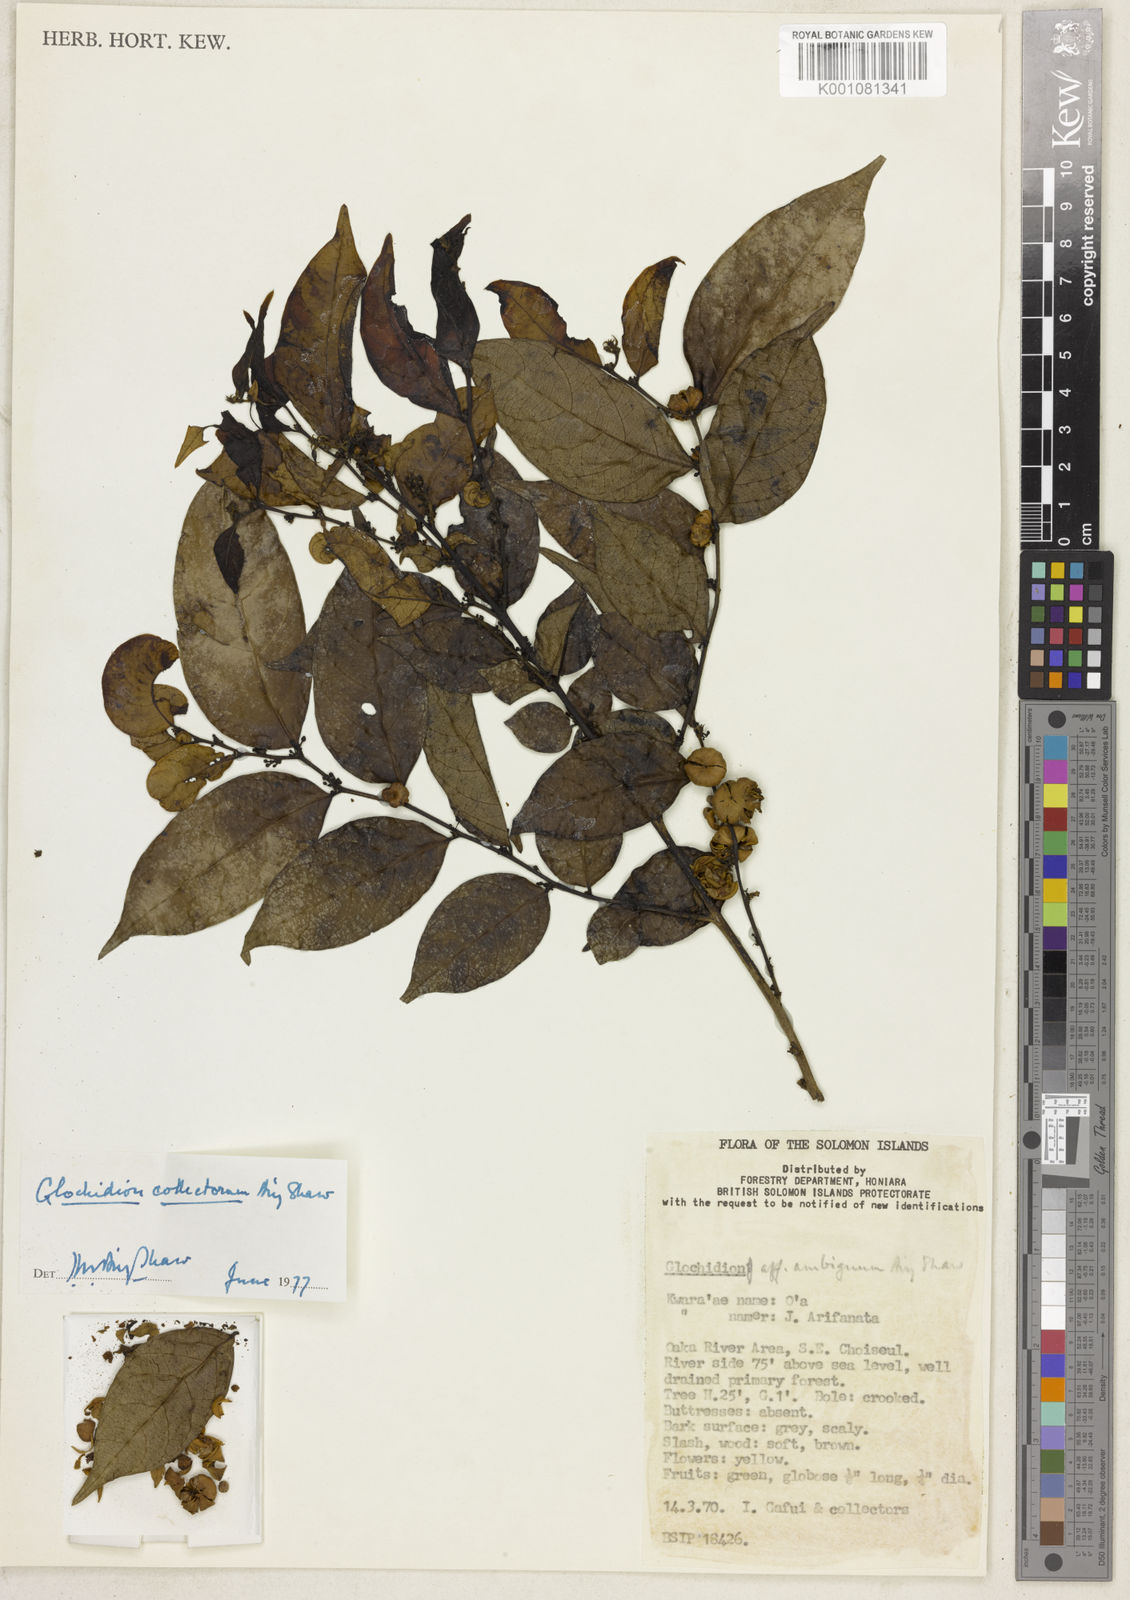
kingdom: Plantae
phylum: Tracheophyta
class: Magnoliopsida
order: Malpighiales
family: Phyllanthaceae
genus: Glochidion
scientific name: Glochidion collectorum
